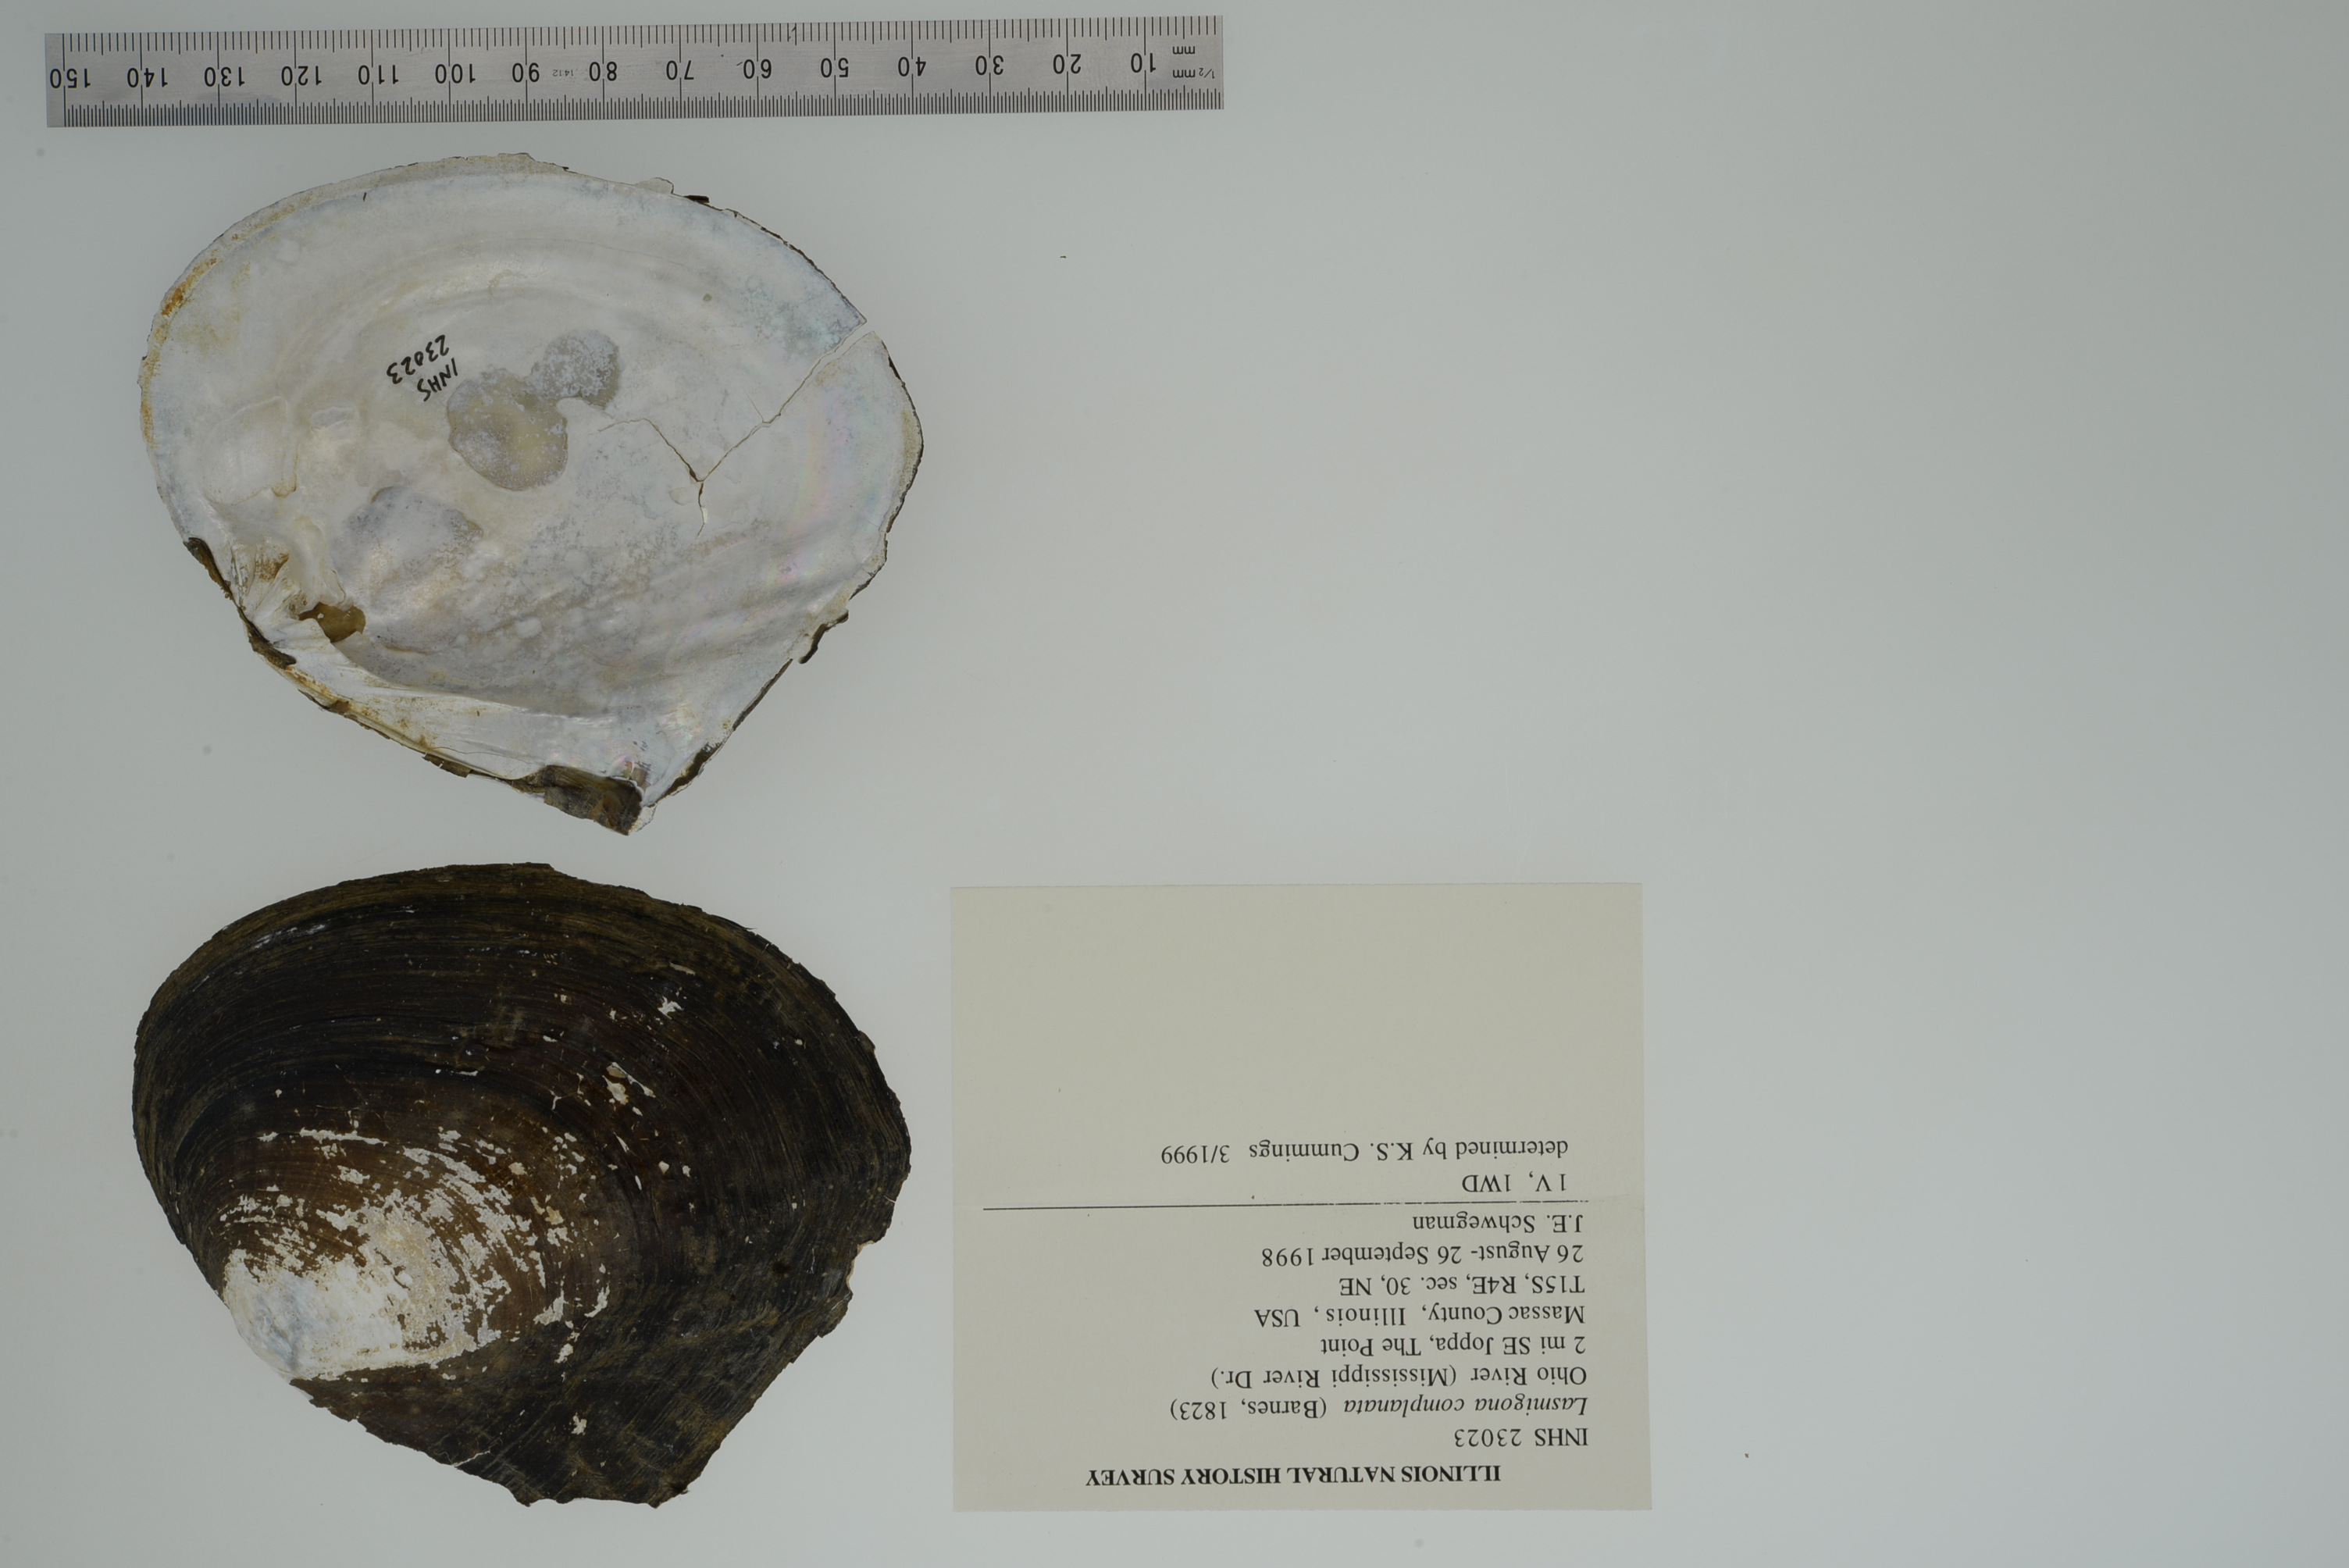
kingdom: Animalia
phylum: Mollusca
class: Bivalvia
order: Unionida
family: Unionidae
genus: Lasmigona
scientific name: Lasmigona complanata
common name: White heelsplitter
